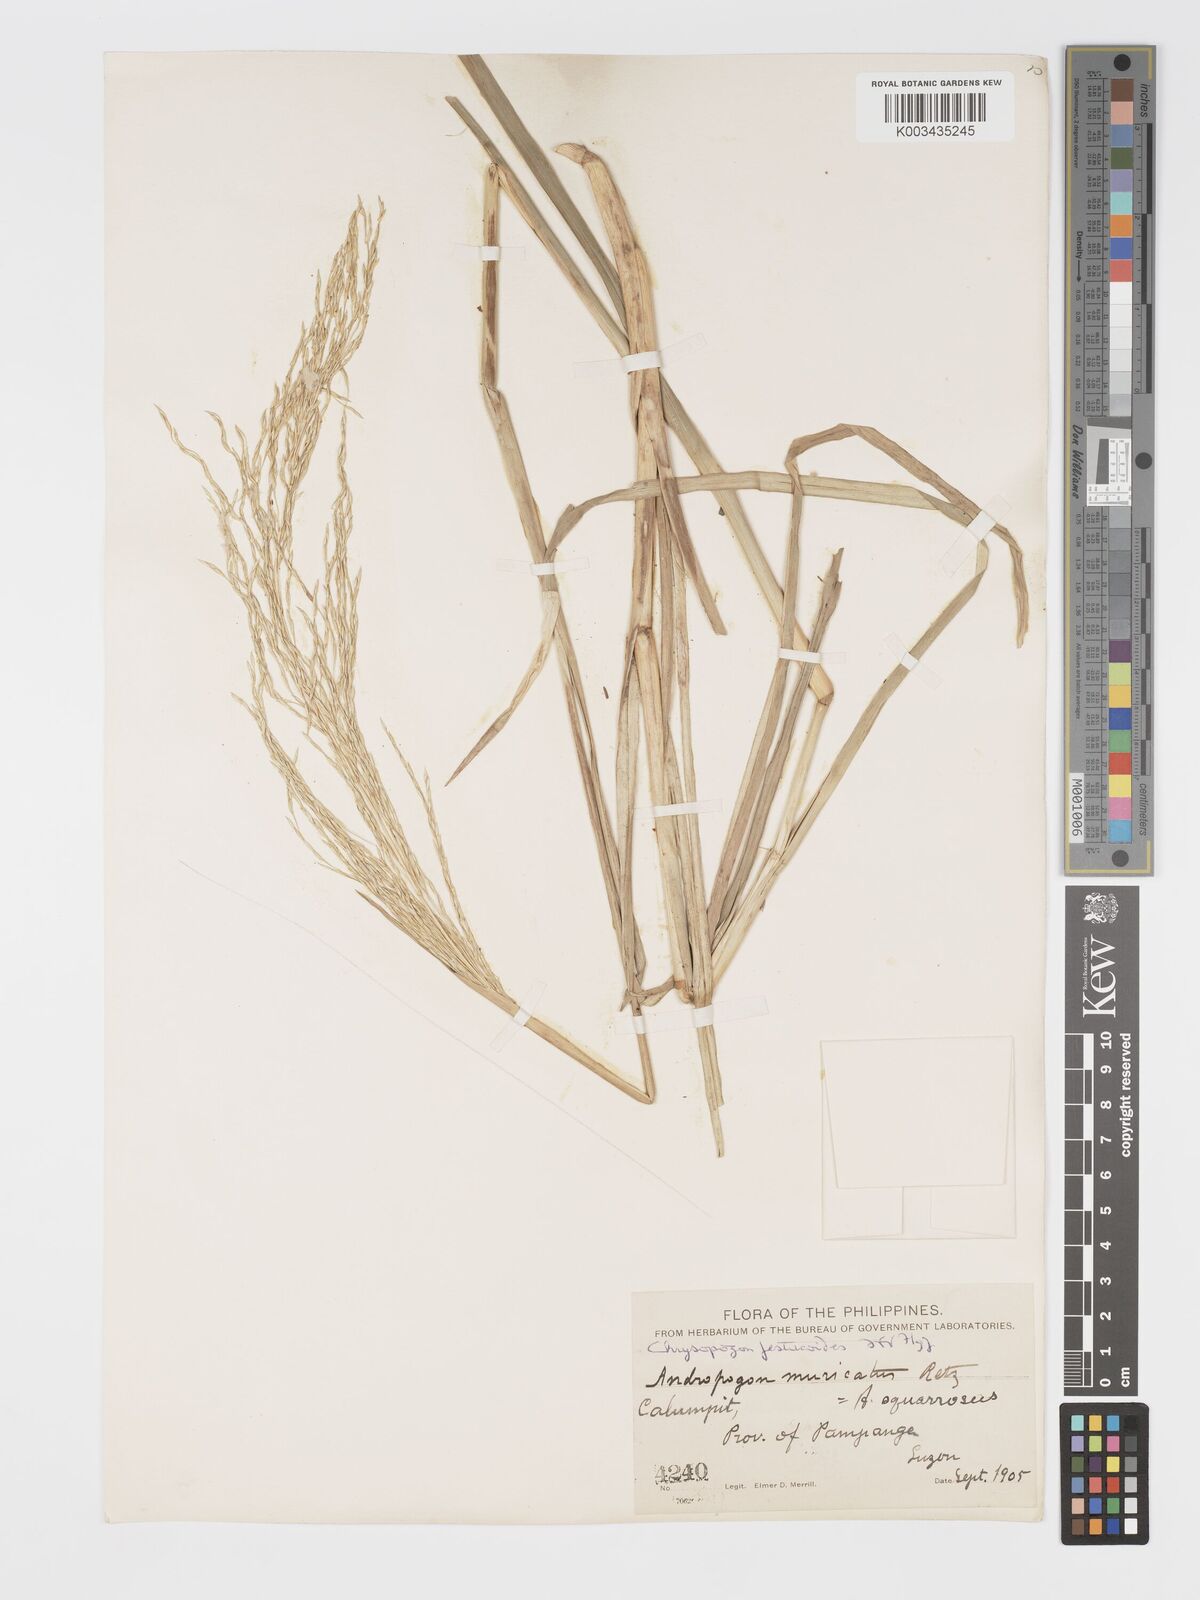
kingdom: Plantae
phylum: Tracheophyta
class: Liliopsida
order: Poales
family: Poaceae
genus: Chrysopogon
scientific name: Chrysopogon festucoides
